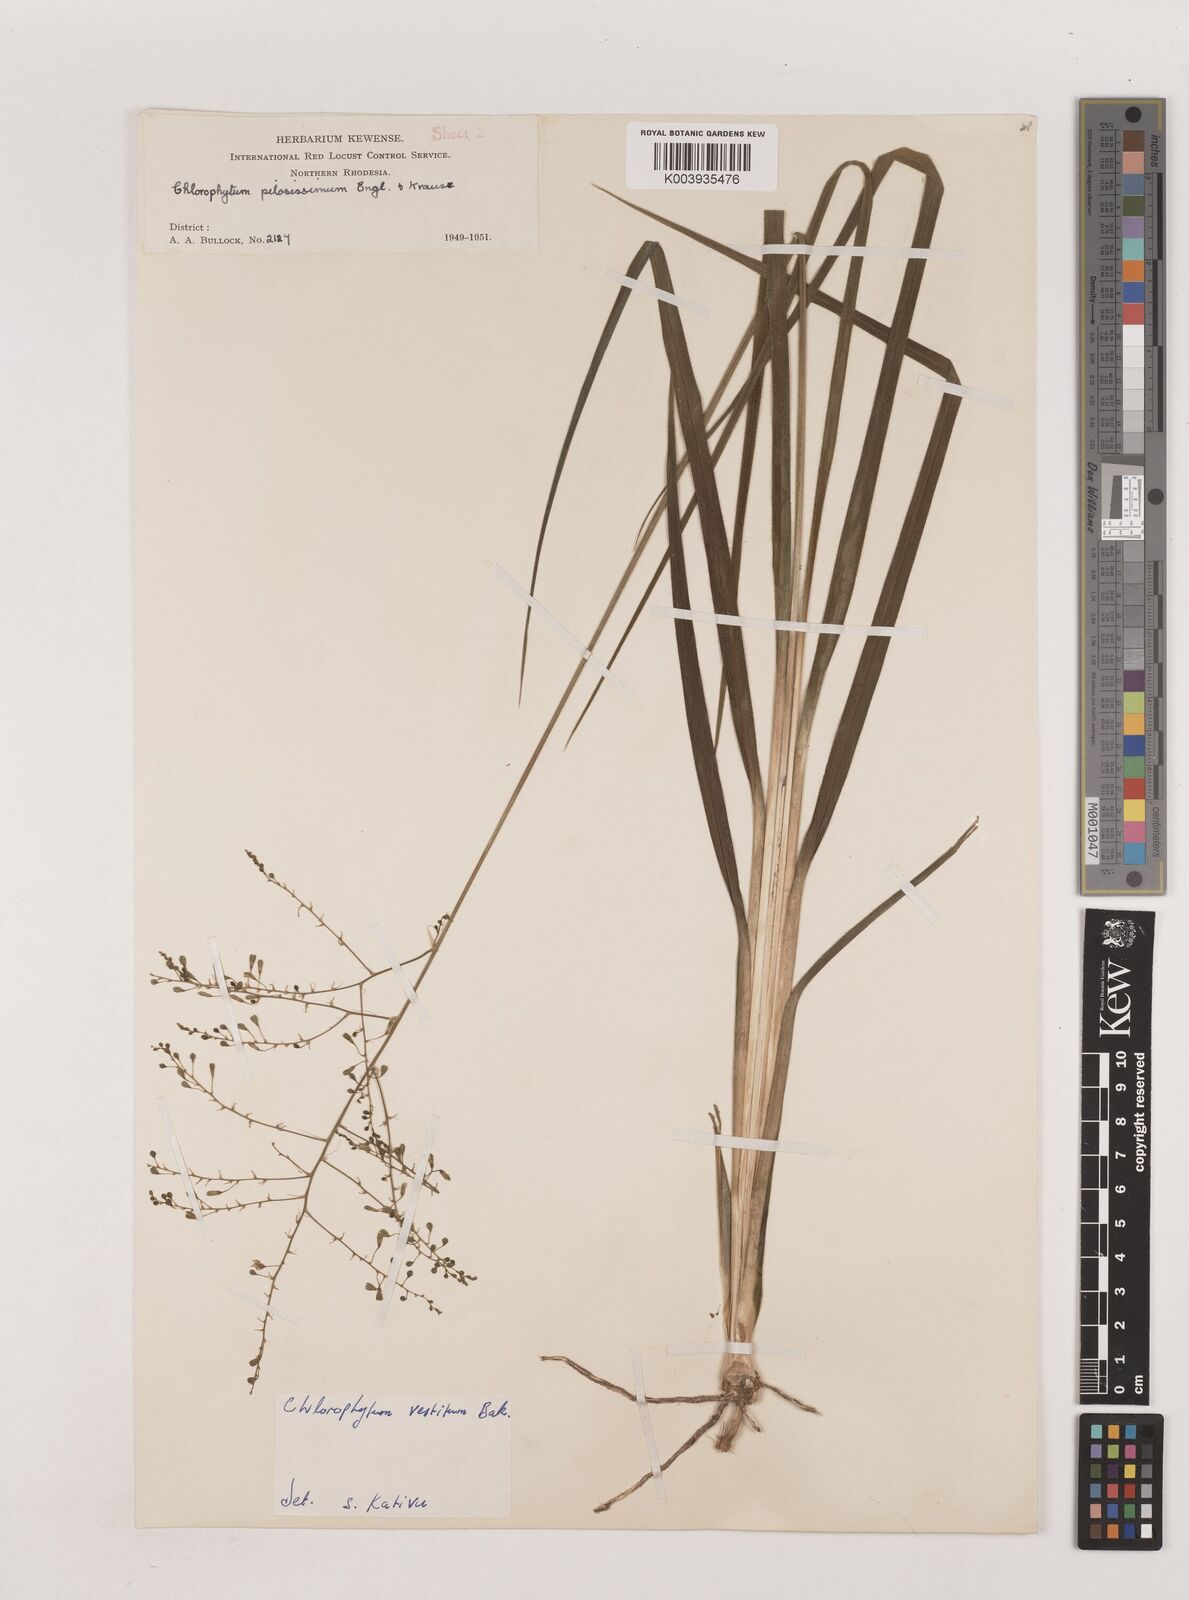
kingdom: Plantae
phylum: Tracheophyta
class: Liliopsida
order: Asparagales
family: Asparagaceae
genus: Chlorophytum
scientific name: Chlorophytum vestitum
